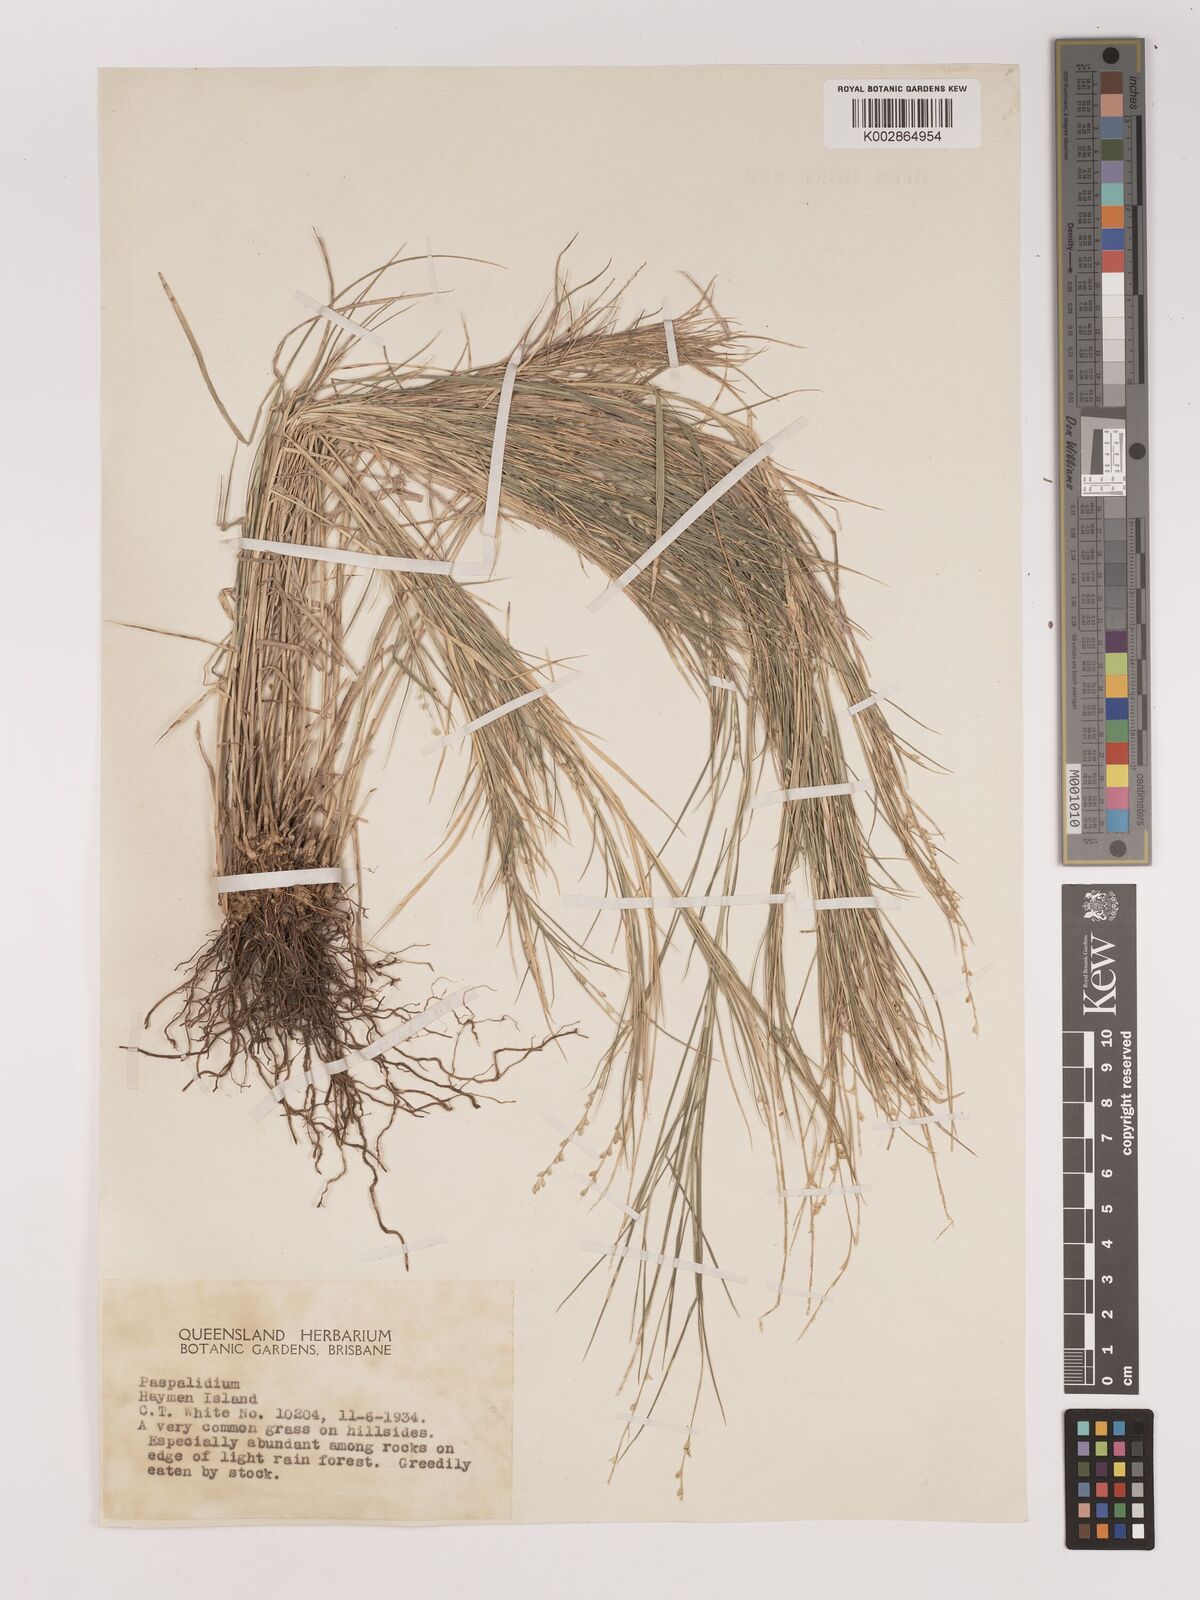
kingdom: Plantae
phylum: Tracheophyta
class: Liliopsida
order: Poales
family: Poaceae
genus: Setaria
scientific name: Setaria
